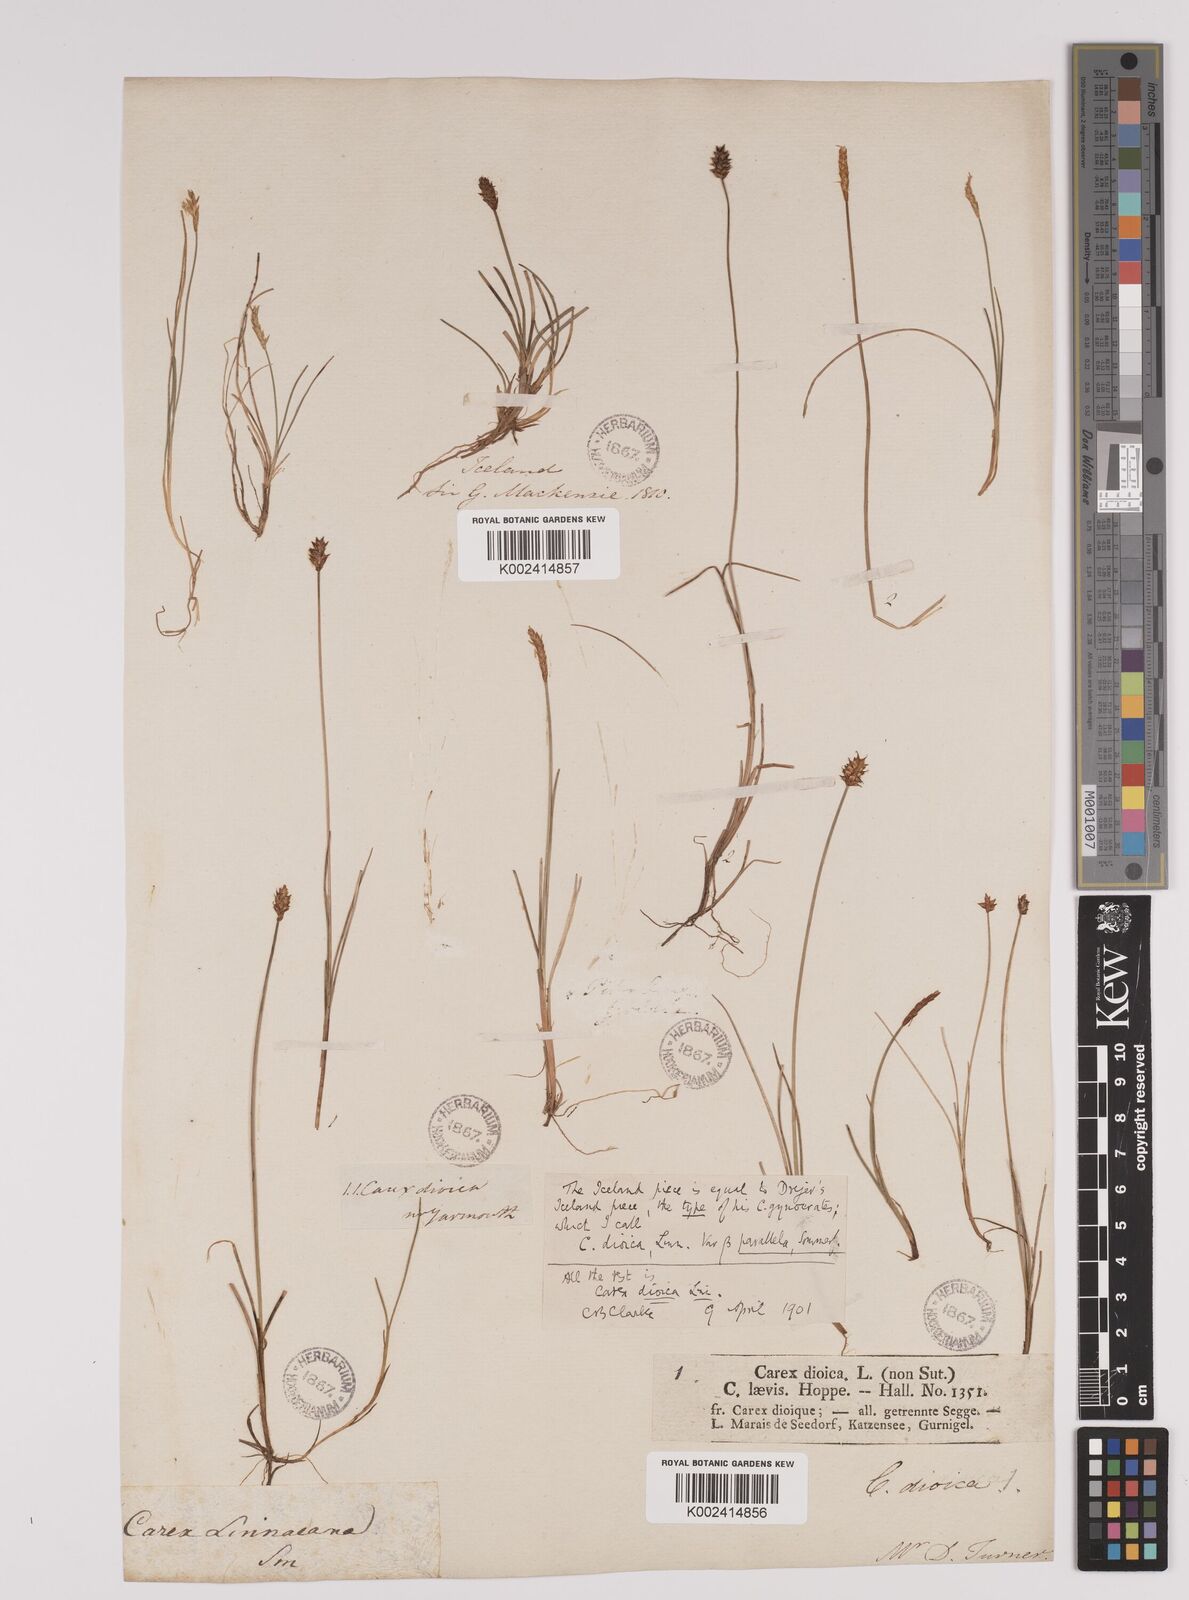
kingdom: Plantae
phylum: Tracheophyta
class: Liliopsida
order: Poales
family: Cyperaceae
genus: Carex
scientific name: Carex dioica
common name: Dioecious sedge
